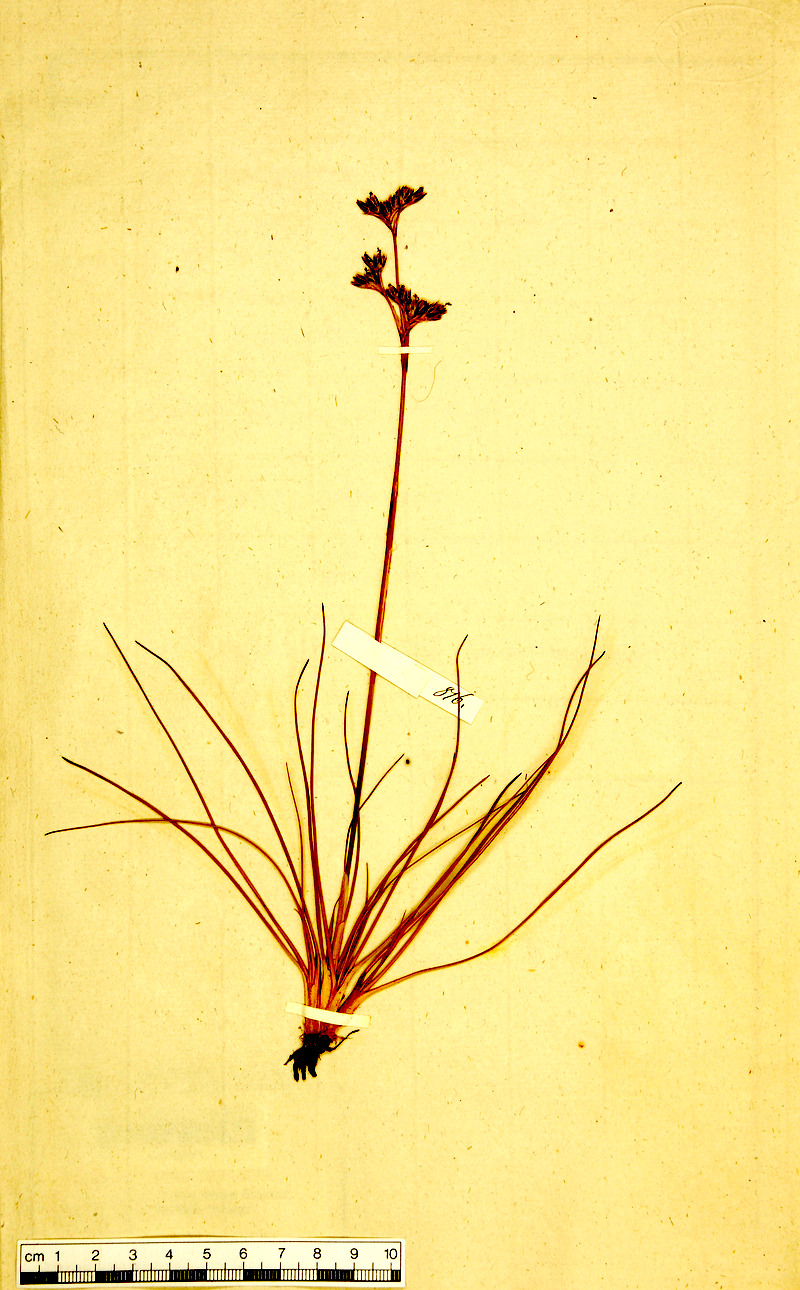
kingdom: Plantae
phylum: Tracheophyta
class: Liliopsida
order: Poales
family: Juncaceae
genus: Juncus
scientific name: Juncus squarrosus
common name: Heath rush
